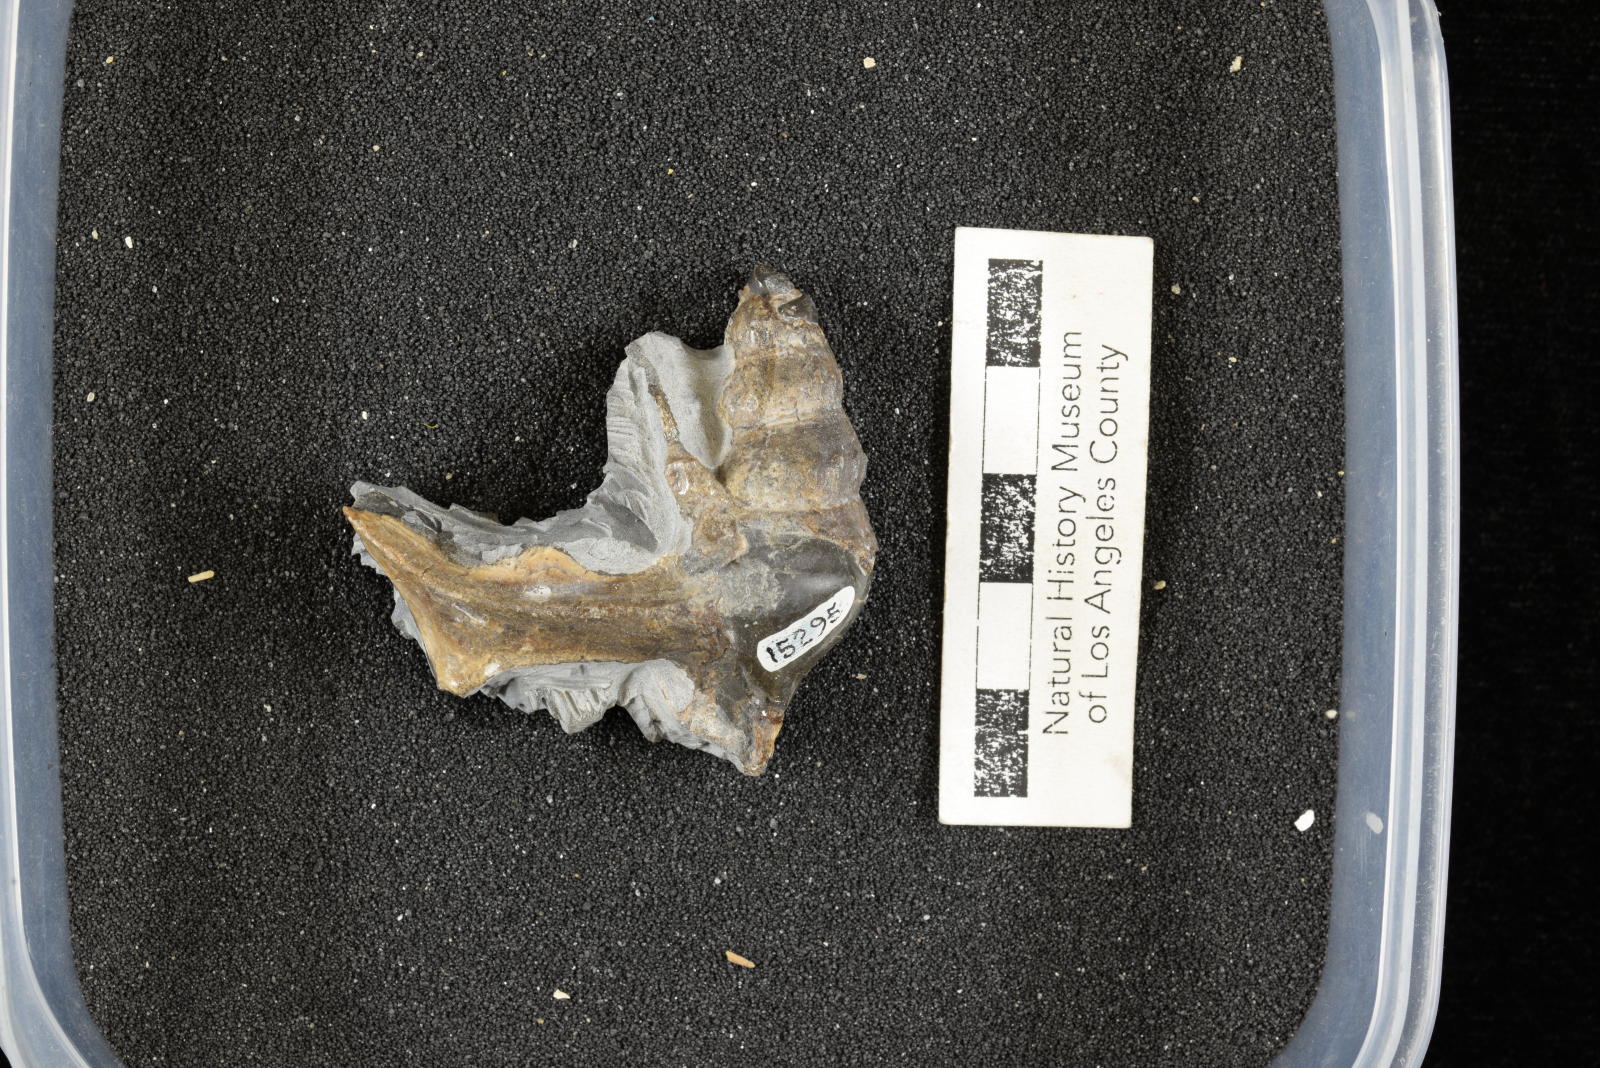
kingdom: Animalia
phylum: Mollusca
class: Gastropoda
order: Littorinimorpha
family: Aporrhaidae
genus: Helicaulax
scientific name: Helicaulax Anchura tricosa
